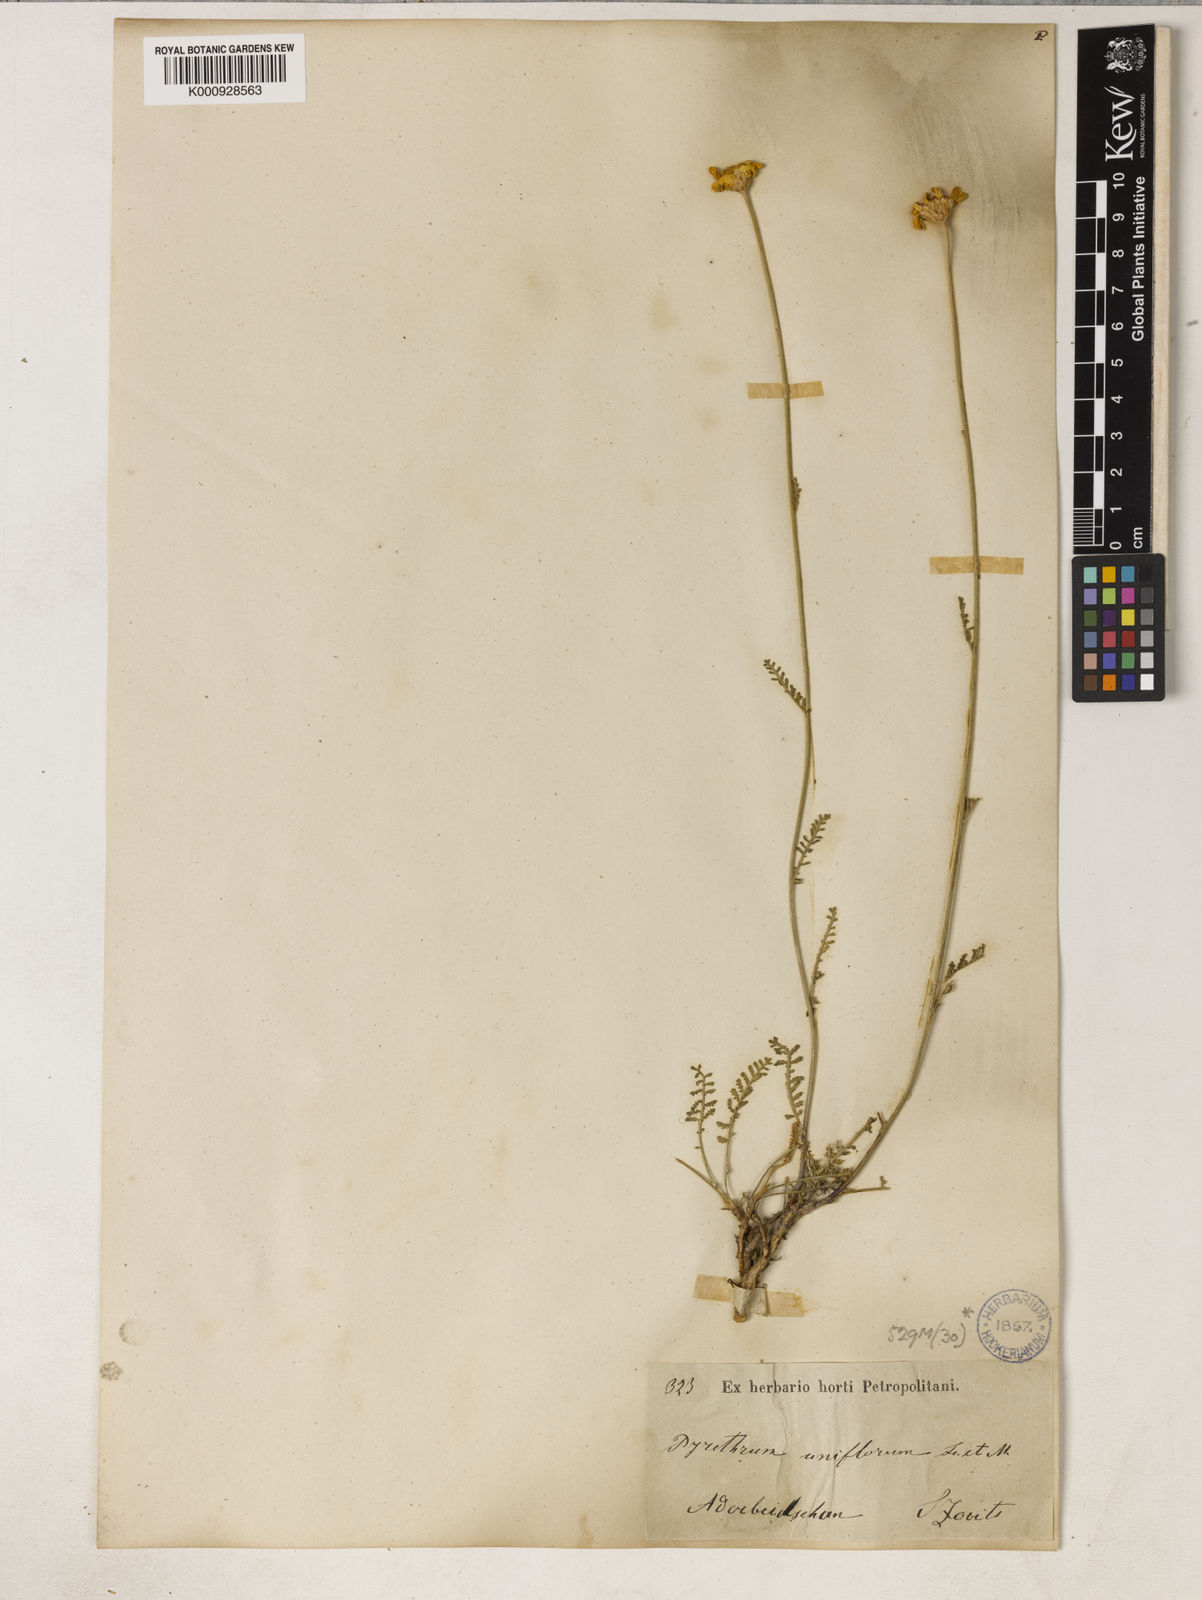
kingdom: Plantae
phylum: Tracheophyta
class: Magnoliopsida
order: Asterales
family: Asteraceae
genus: Tanacetum
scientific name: Tanacetum uniflorum
